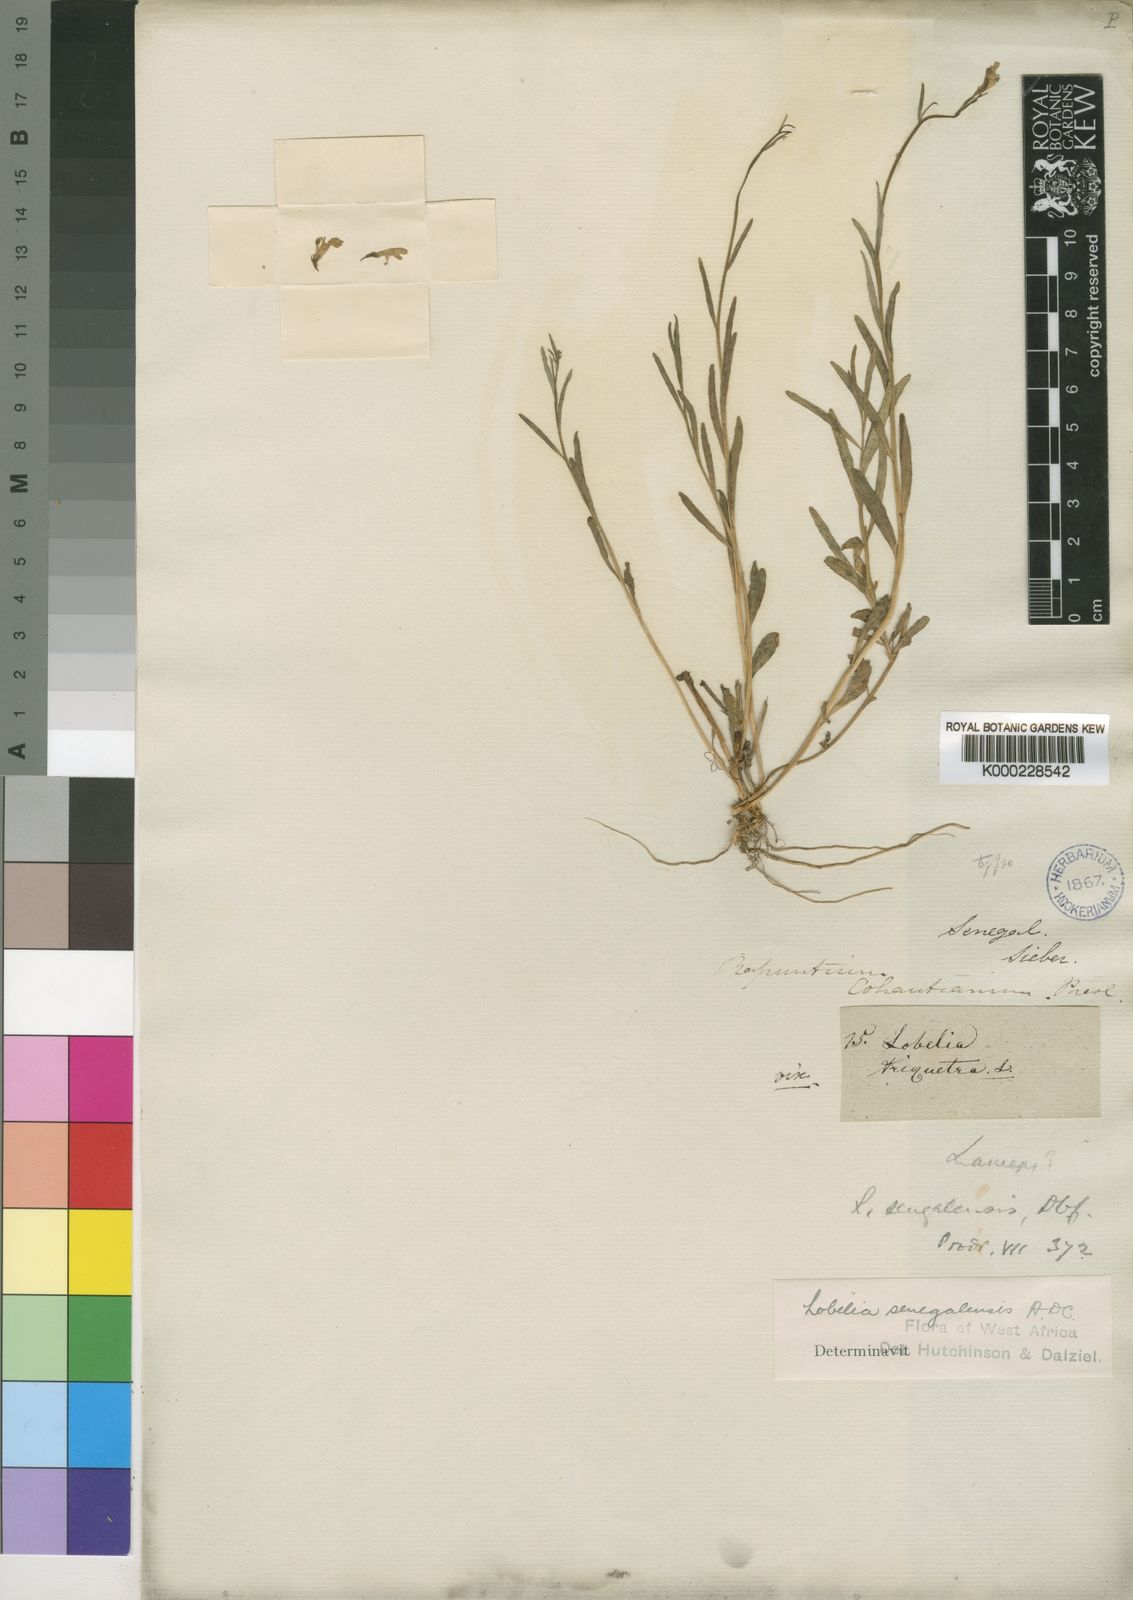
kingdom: Plantae
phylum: Tracheophyta
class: Magnoliopsida
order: Asterales
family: Campanulaceae
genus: Lobelia
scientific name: Lobelia erinus
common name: Edging lobelia
